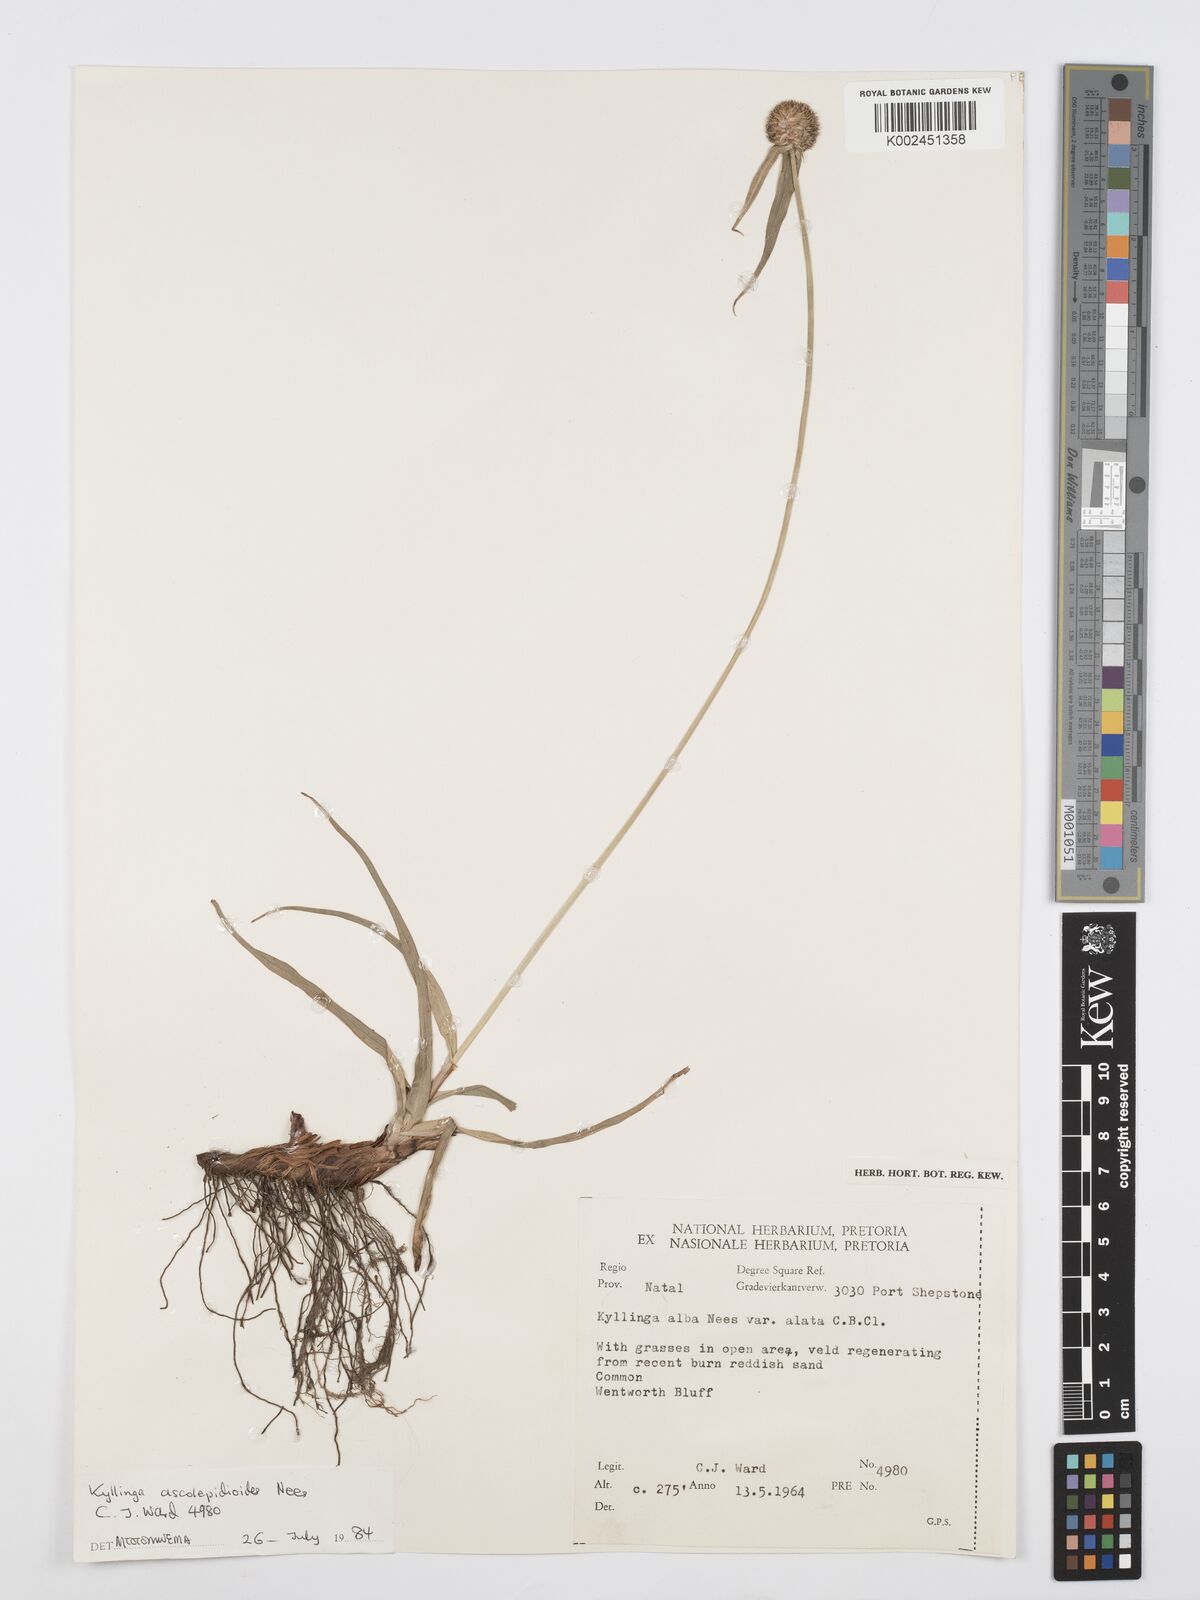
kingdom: Plantae
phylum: Tracheophyta
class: Liliopsida
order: Poales
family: Cyperaceae
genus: Cyperus
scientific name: Cyperus
